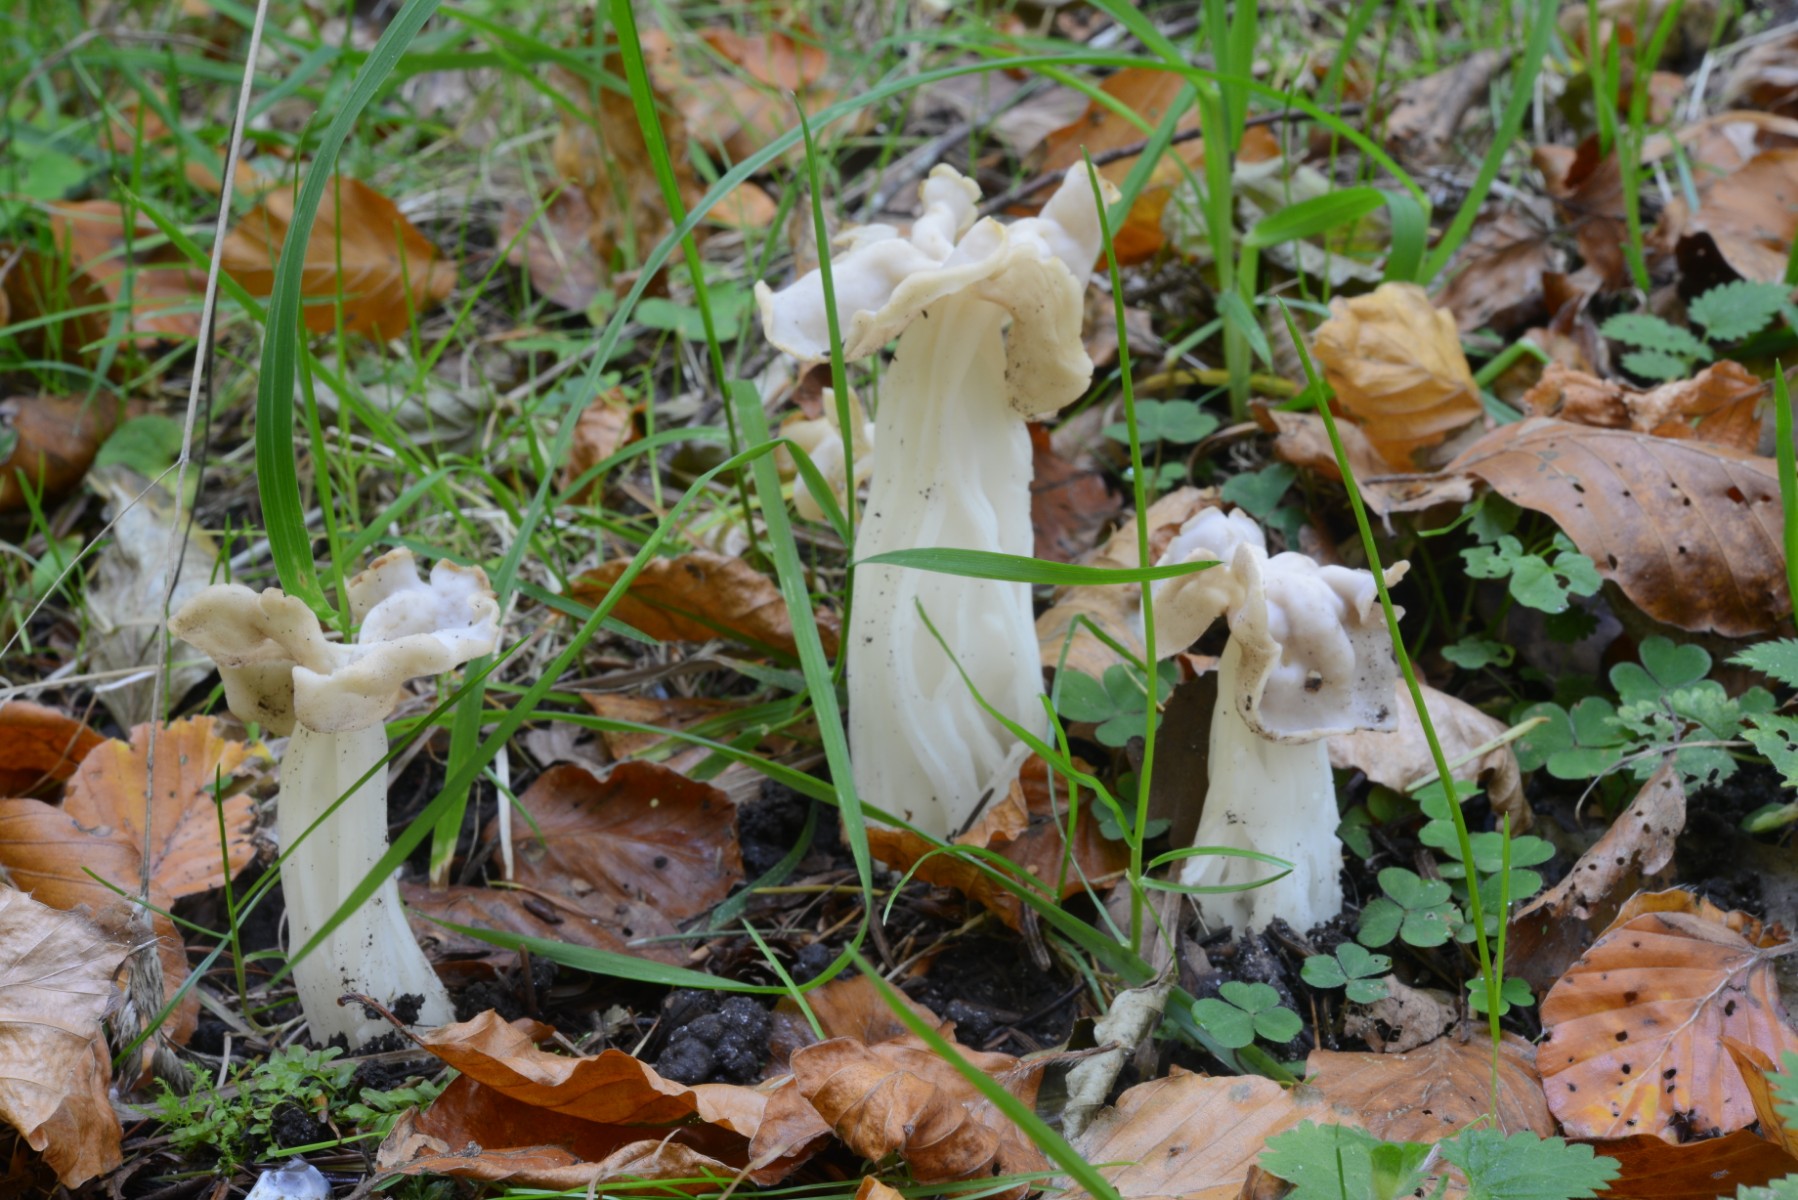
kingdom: Fungi
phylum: Ascomycota
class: Pezizomycetes
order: Pezizales
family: Helvellaceae
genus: Helvella
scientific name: Helvella crispa
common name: kruset foldhat
